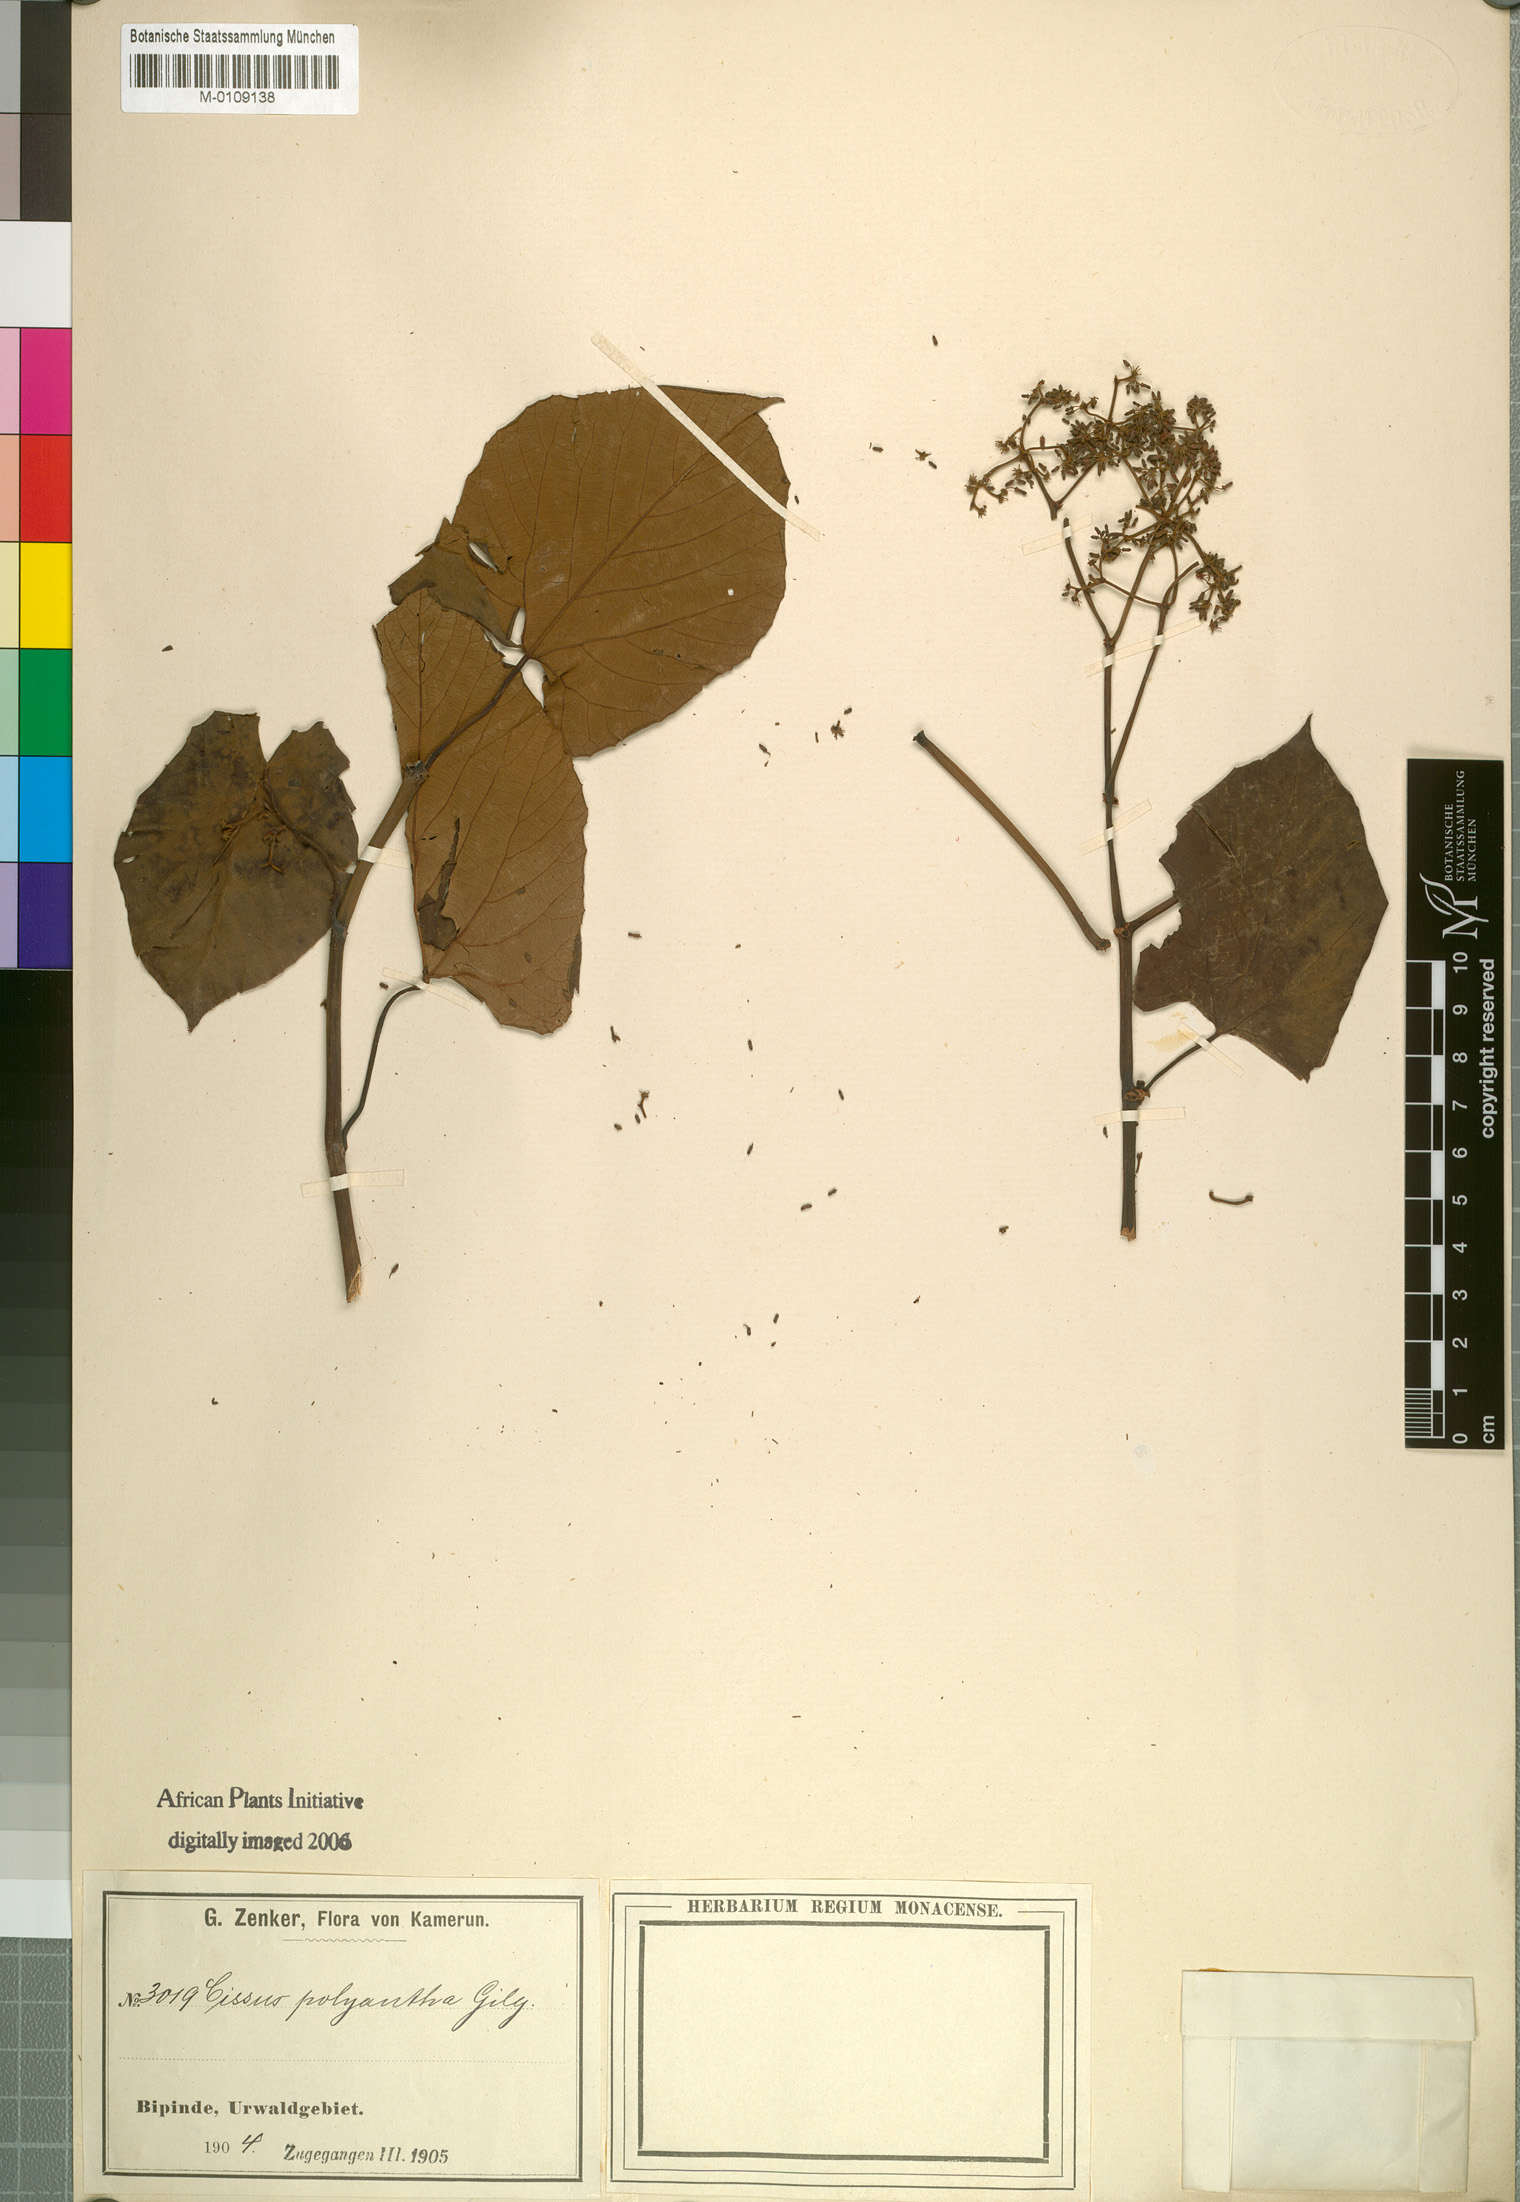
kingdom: Plantae
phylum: Tracheophyta
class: Magnoliopsida
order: Vitales
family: Vitaceae
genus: Cissus
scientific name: Cissus amoena
